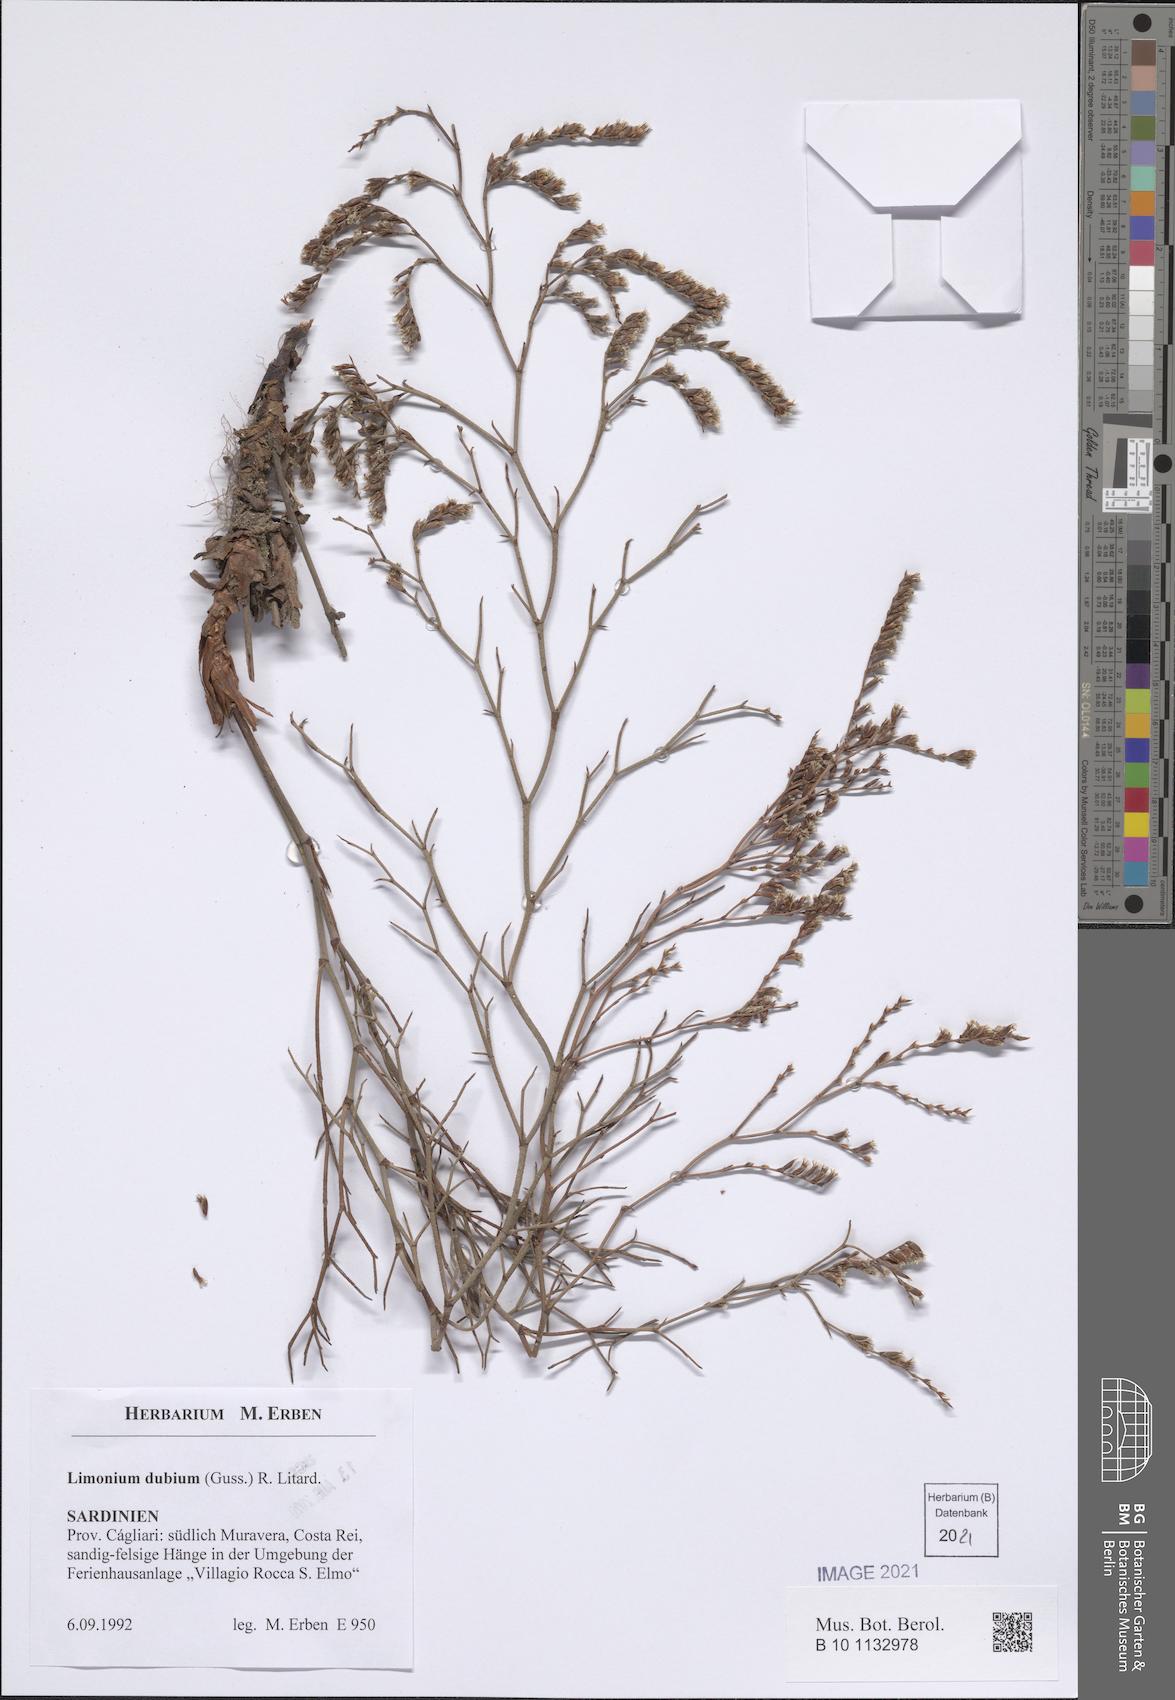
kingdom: Plantae
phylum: Tracheophyta
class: Magnoliopsida
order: Caryophyllales
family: Plumbaginaceae
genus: Limonium
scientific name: Limonium dubium
